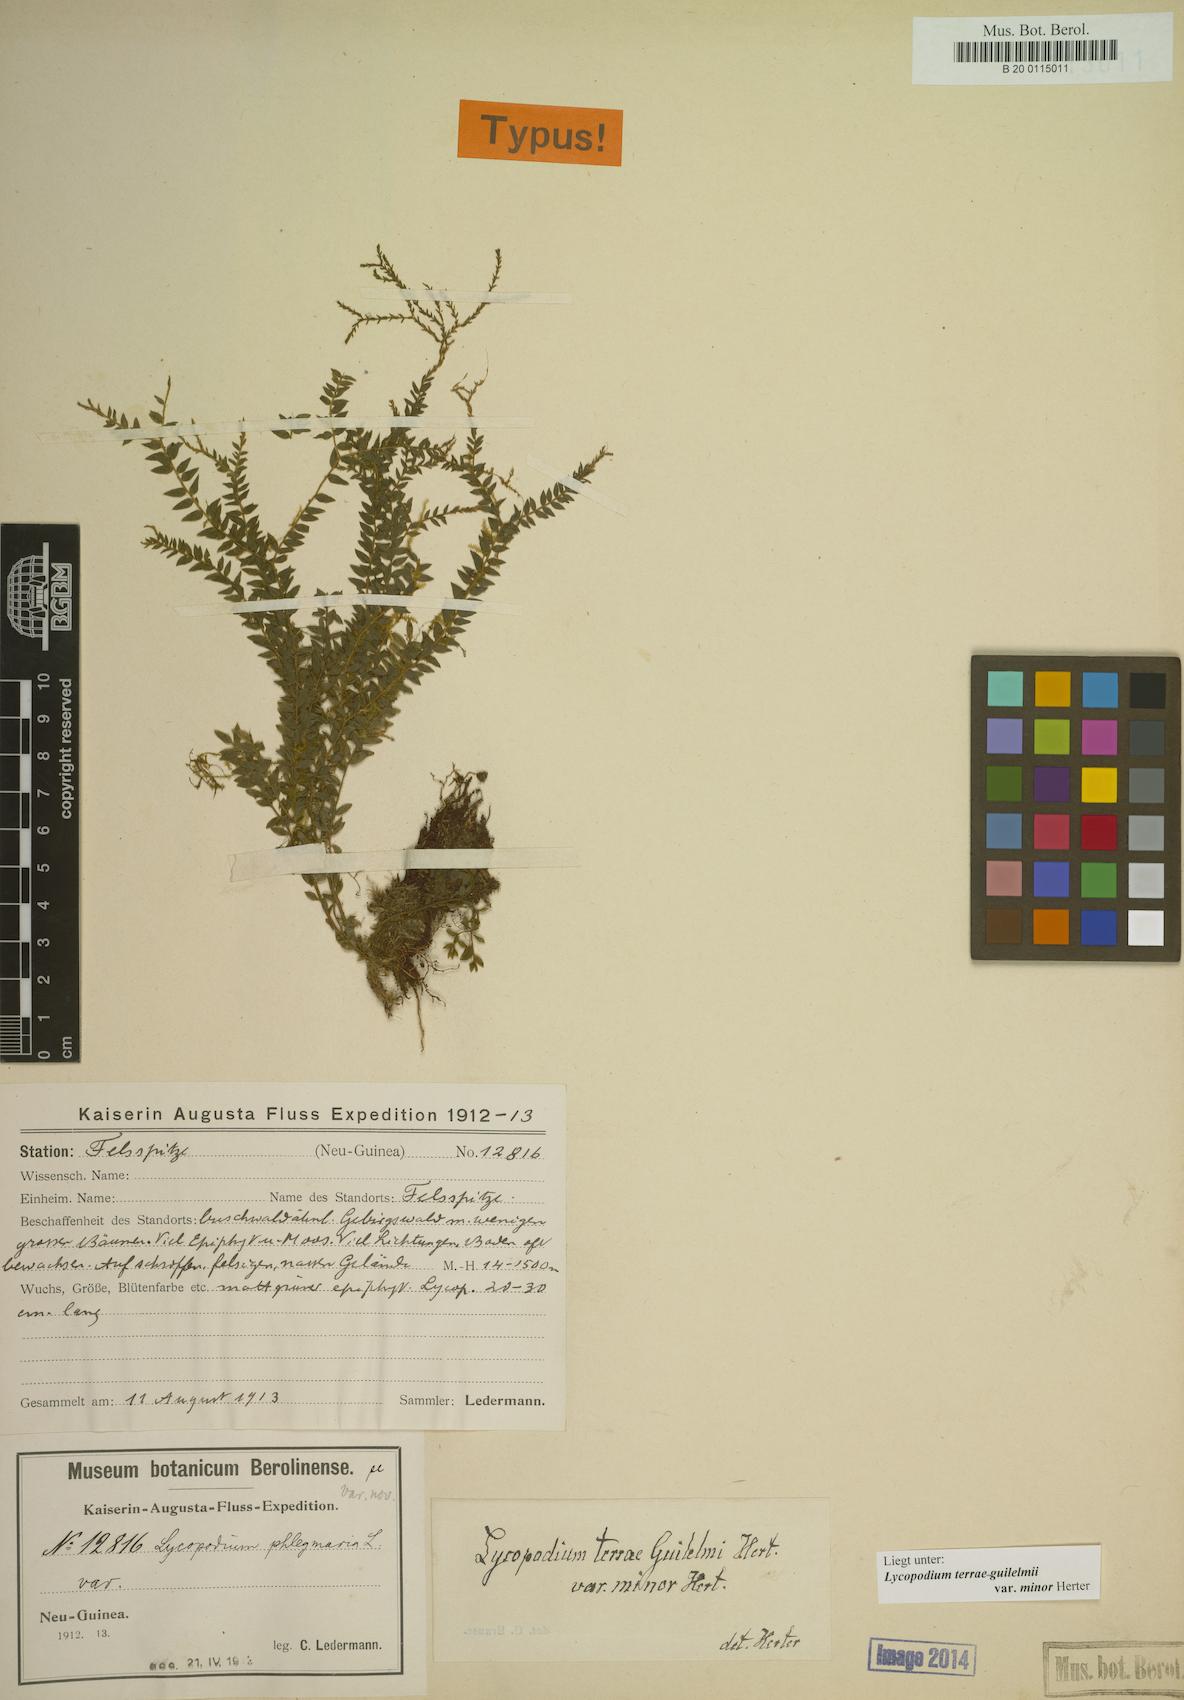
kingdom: Plantae
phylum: Tracheophyta
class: Lycopodiopsida
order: Lycopodiales
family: Lycopodiaceae
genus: Phlegmariurus
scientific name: Phlegmariurus terrae-guilelmii
